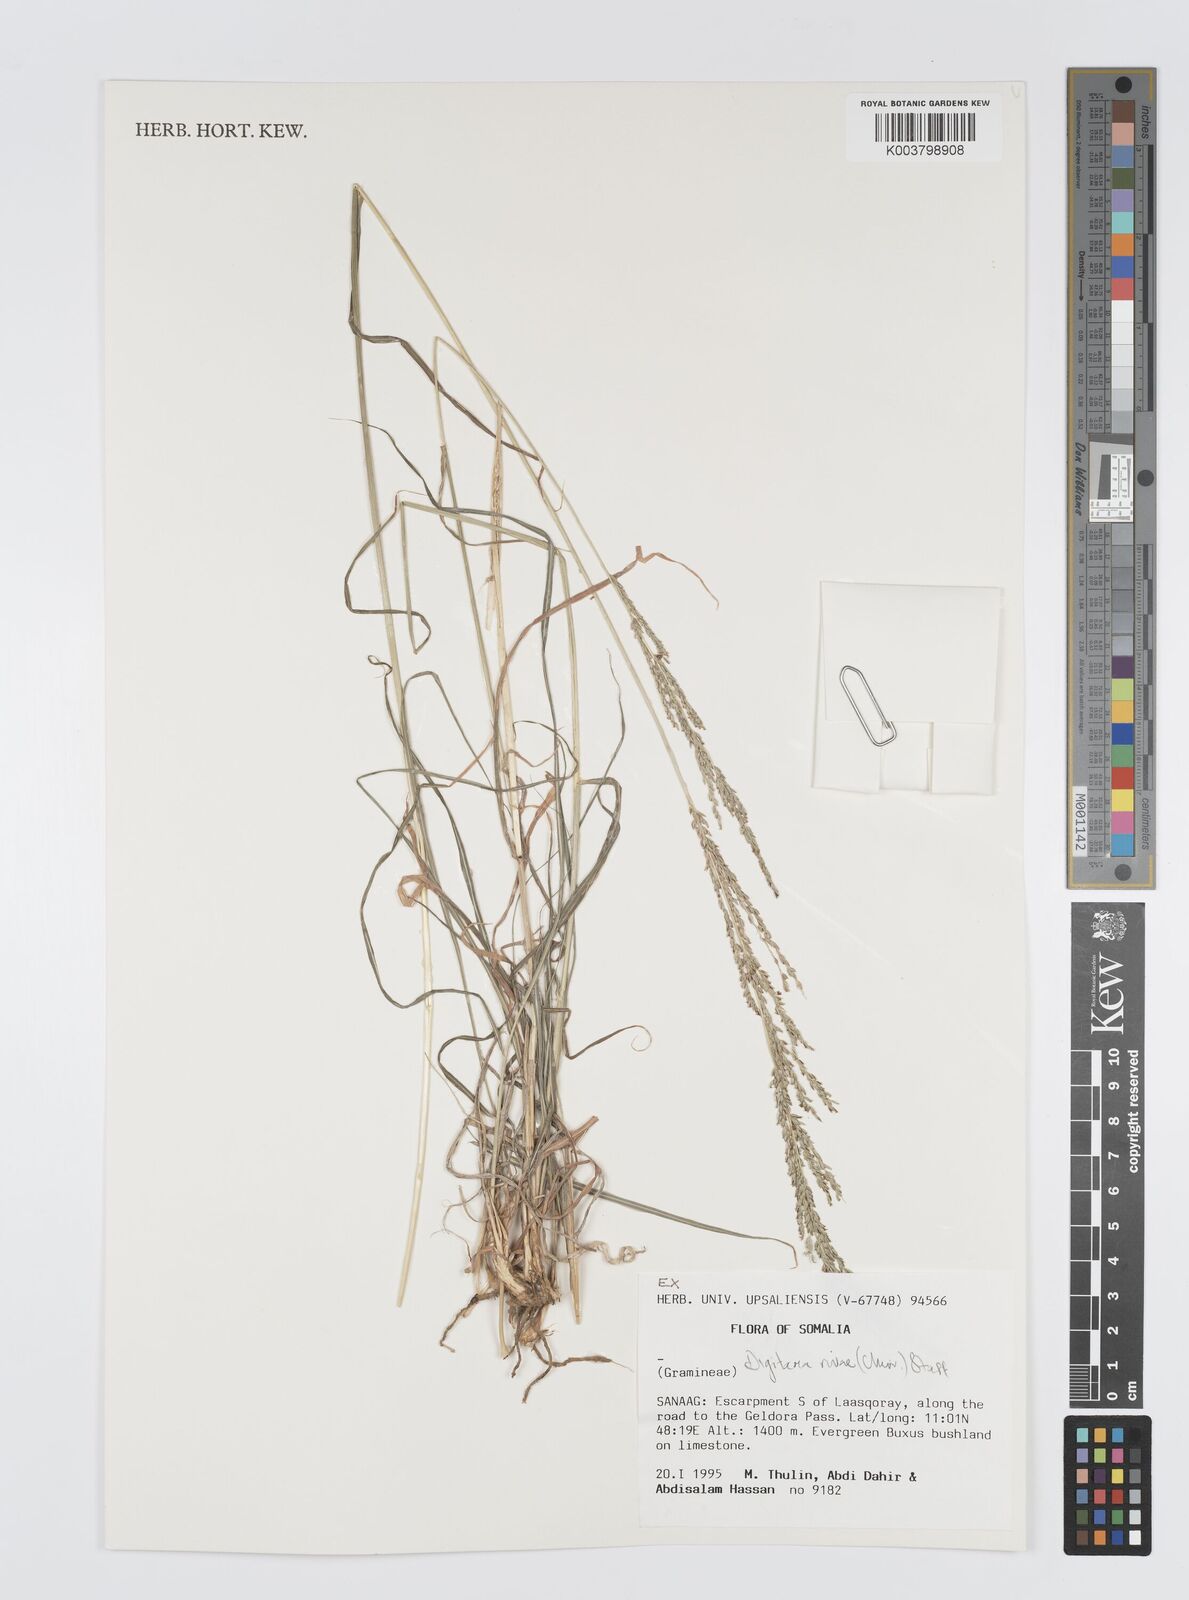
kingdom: Plantae
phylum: Tracheophyta
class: Liliopsida
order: Poales
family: Poaceae
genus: Digitaria
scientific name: Digitaria rivae
